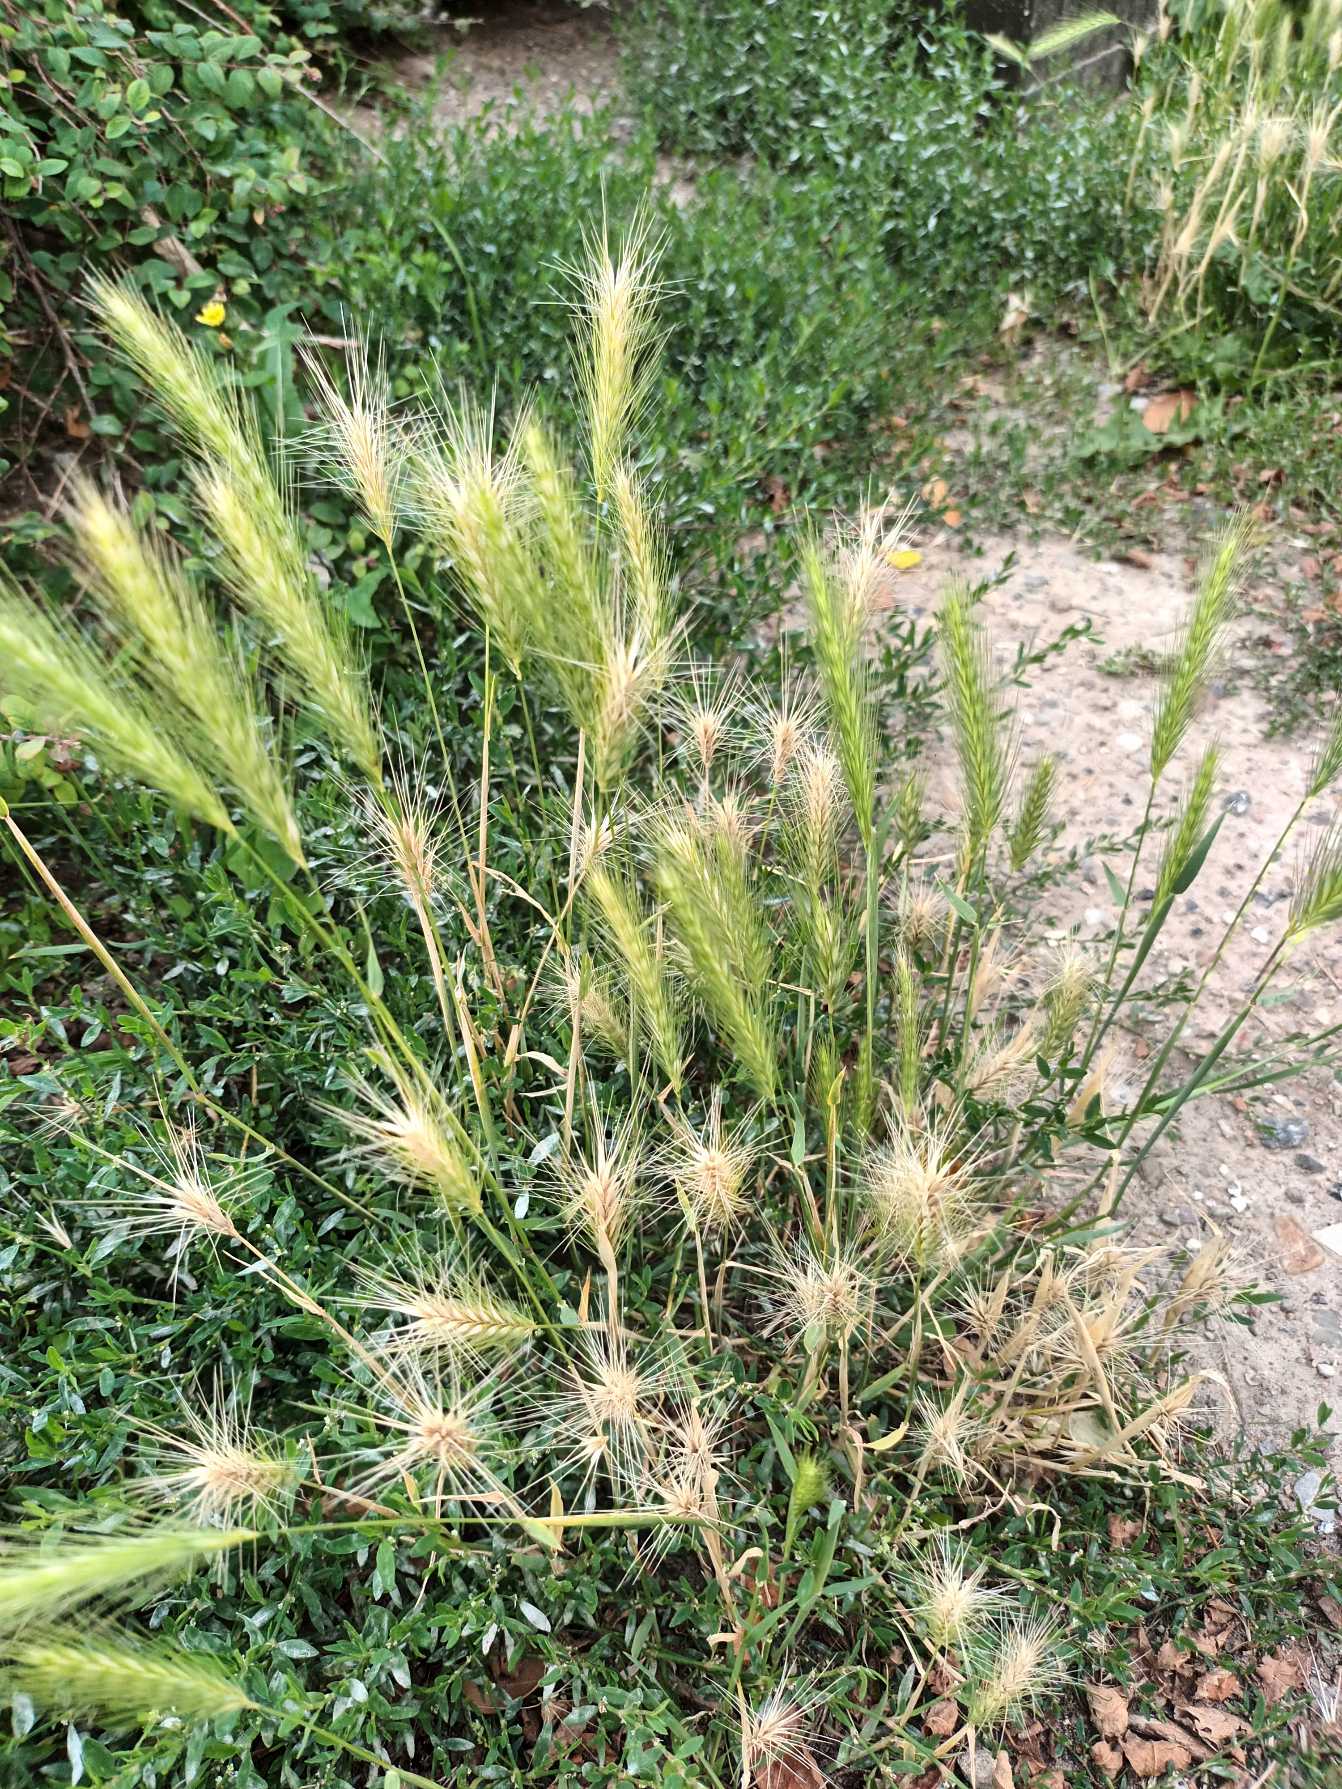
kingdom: Plantae
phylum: Tracheophyta
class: Liliopsida
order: Poales
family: Poaceae
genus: Hordeum
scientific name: Hordeum murinum
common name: Gold byg
